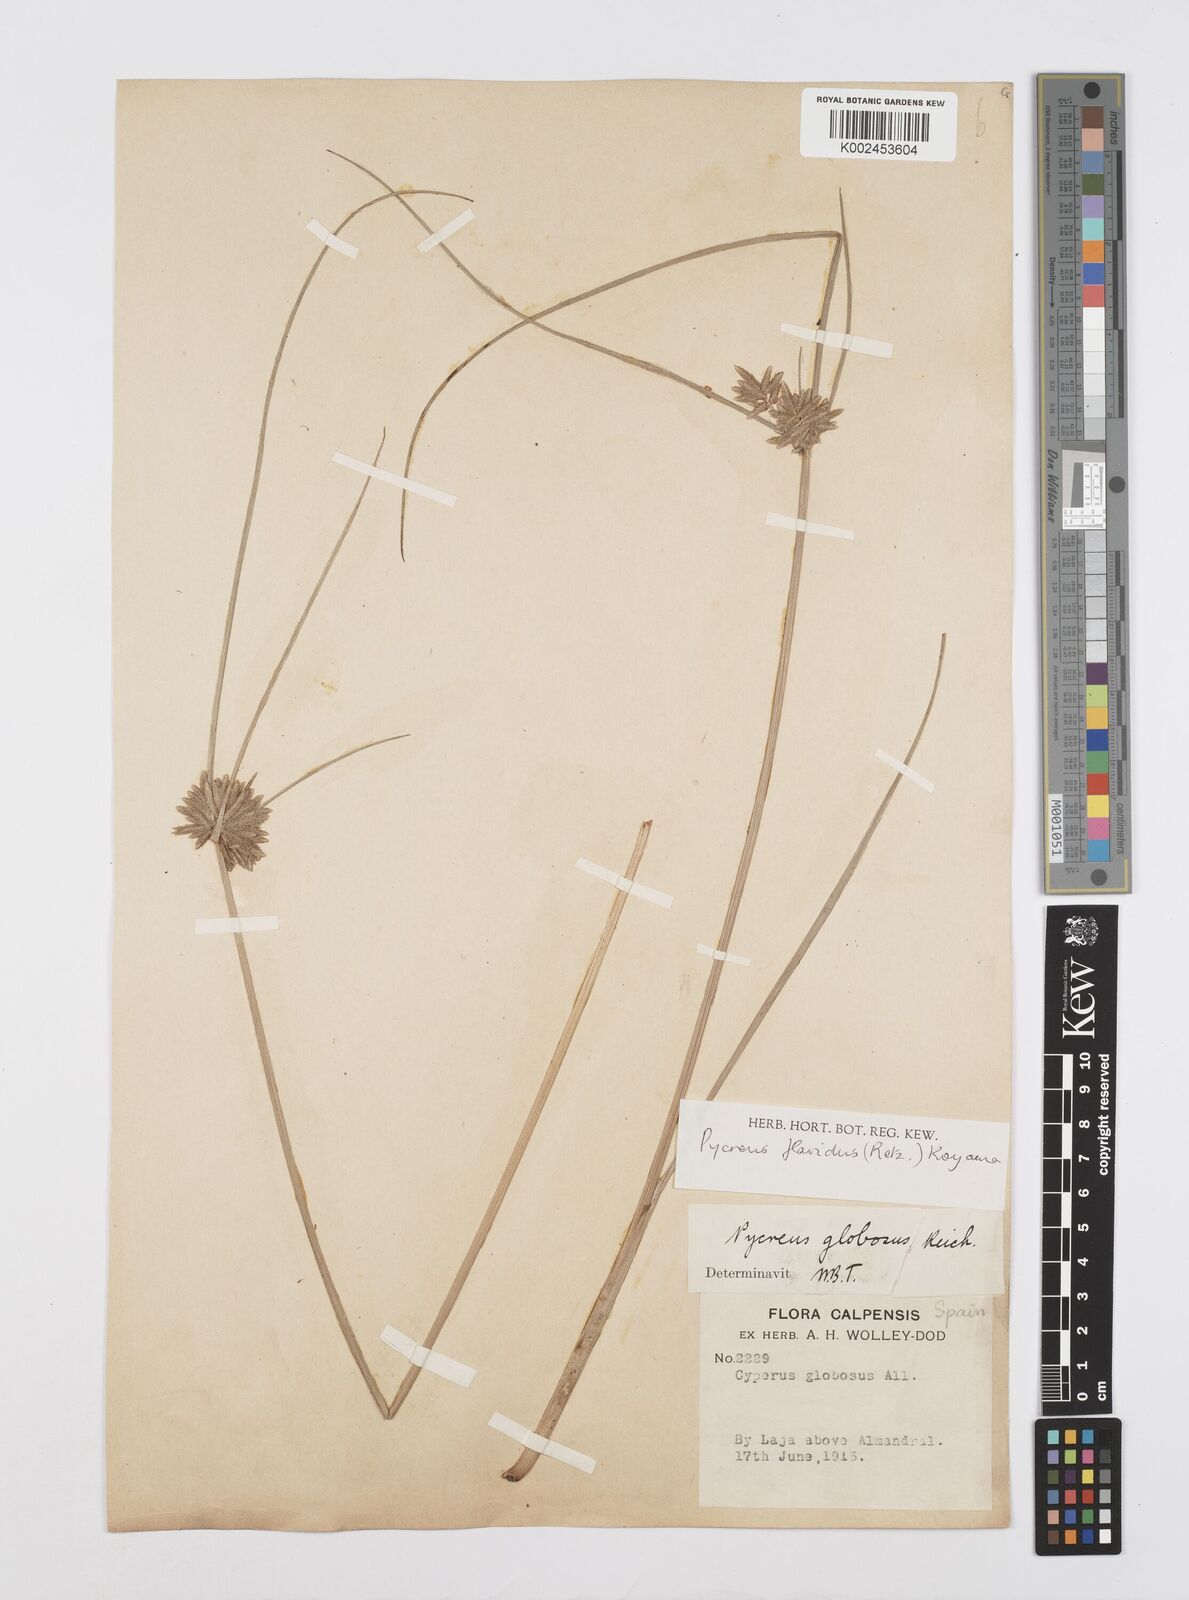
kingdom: Plantae
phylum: Tracheophyta
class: Liliopsida
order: Poales
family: Cyperaceae
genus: Cyperus
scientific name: Cyperus flavidus
